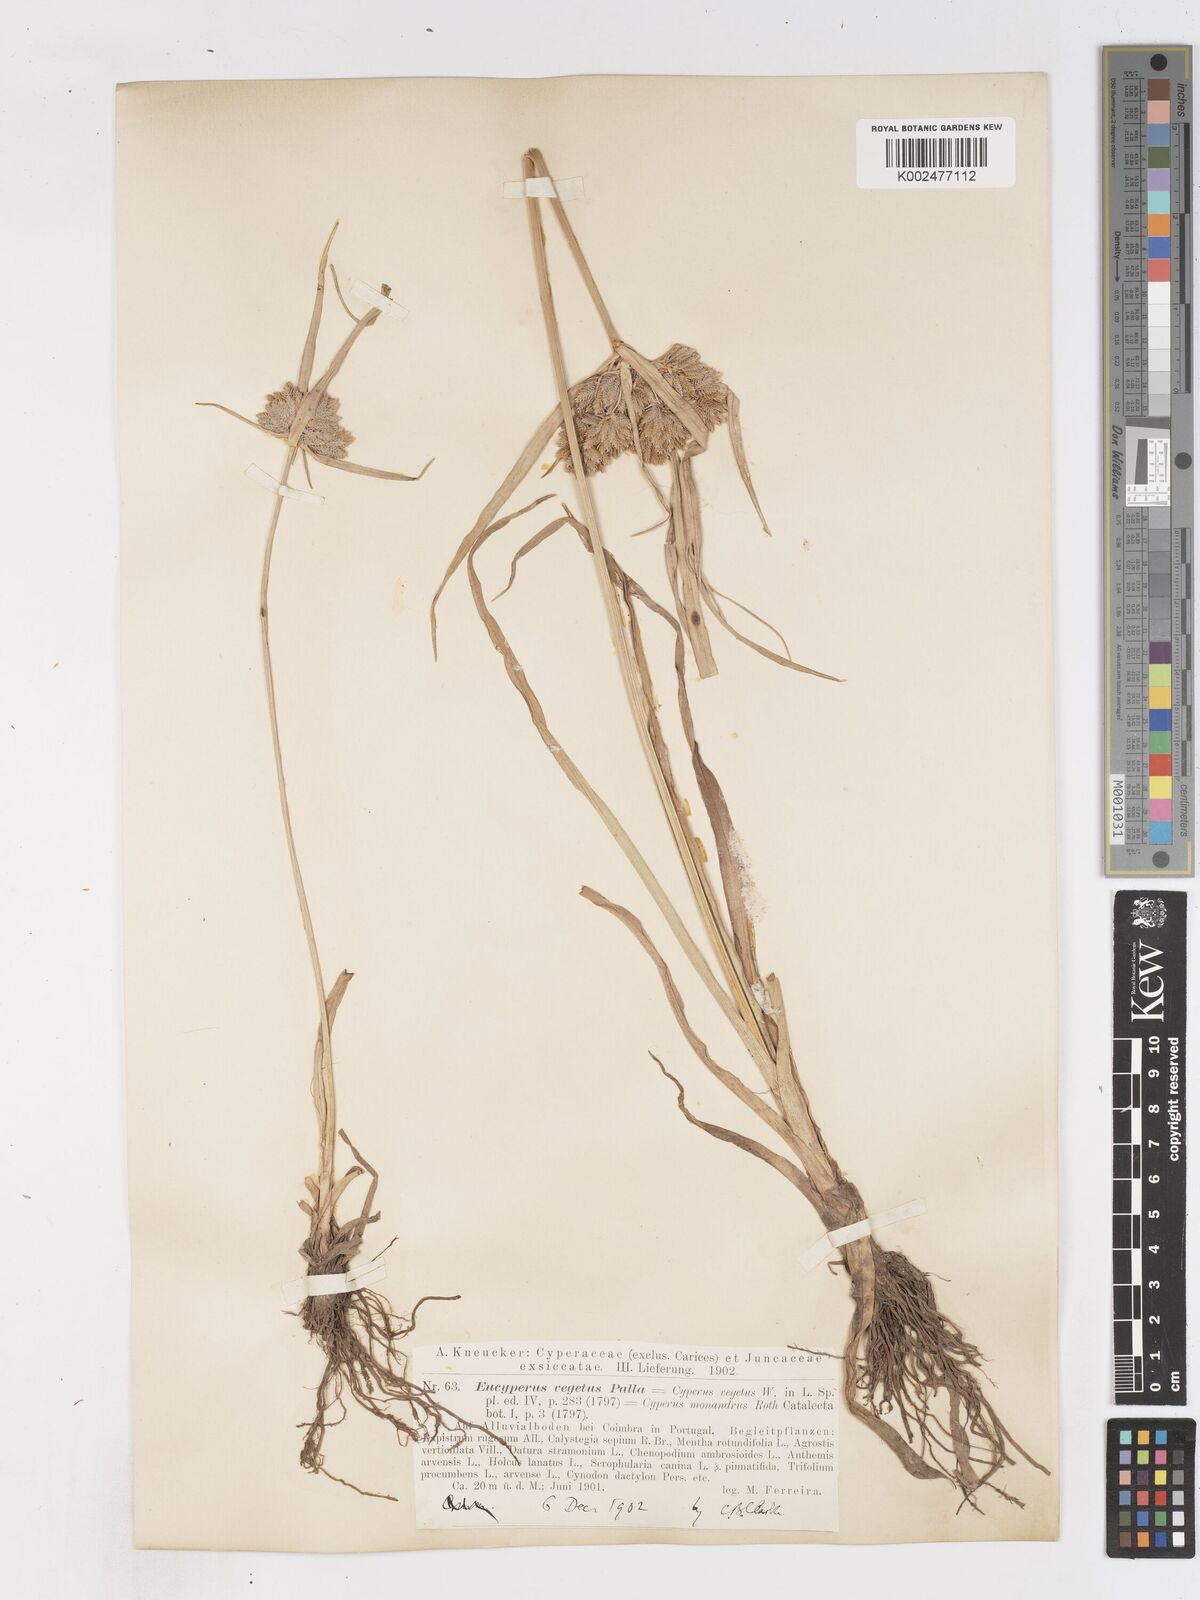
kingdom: Plantae
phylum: Tracheophyta
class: Liliopsida
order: Poales
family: Cyperaceae
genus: Cyperus
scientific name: Cyperus eragrostis
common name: Tall flatsedge
